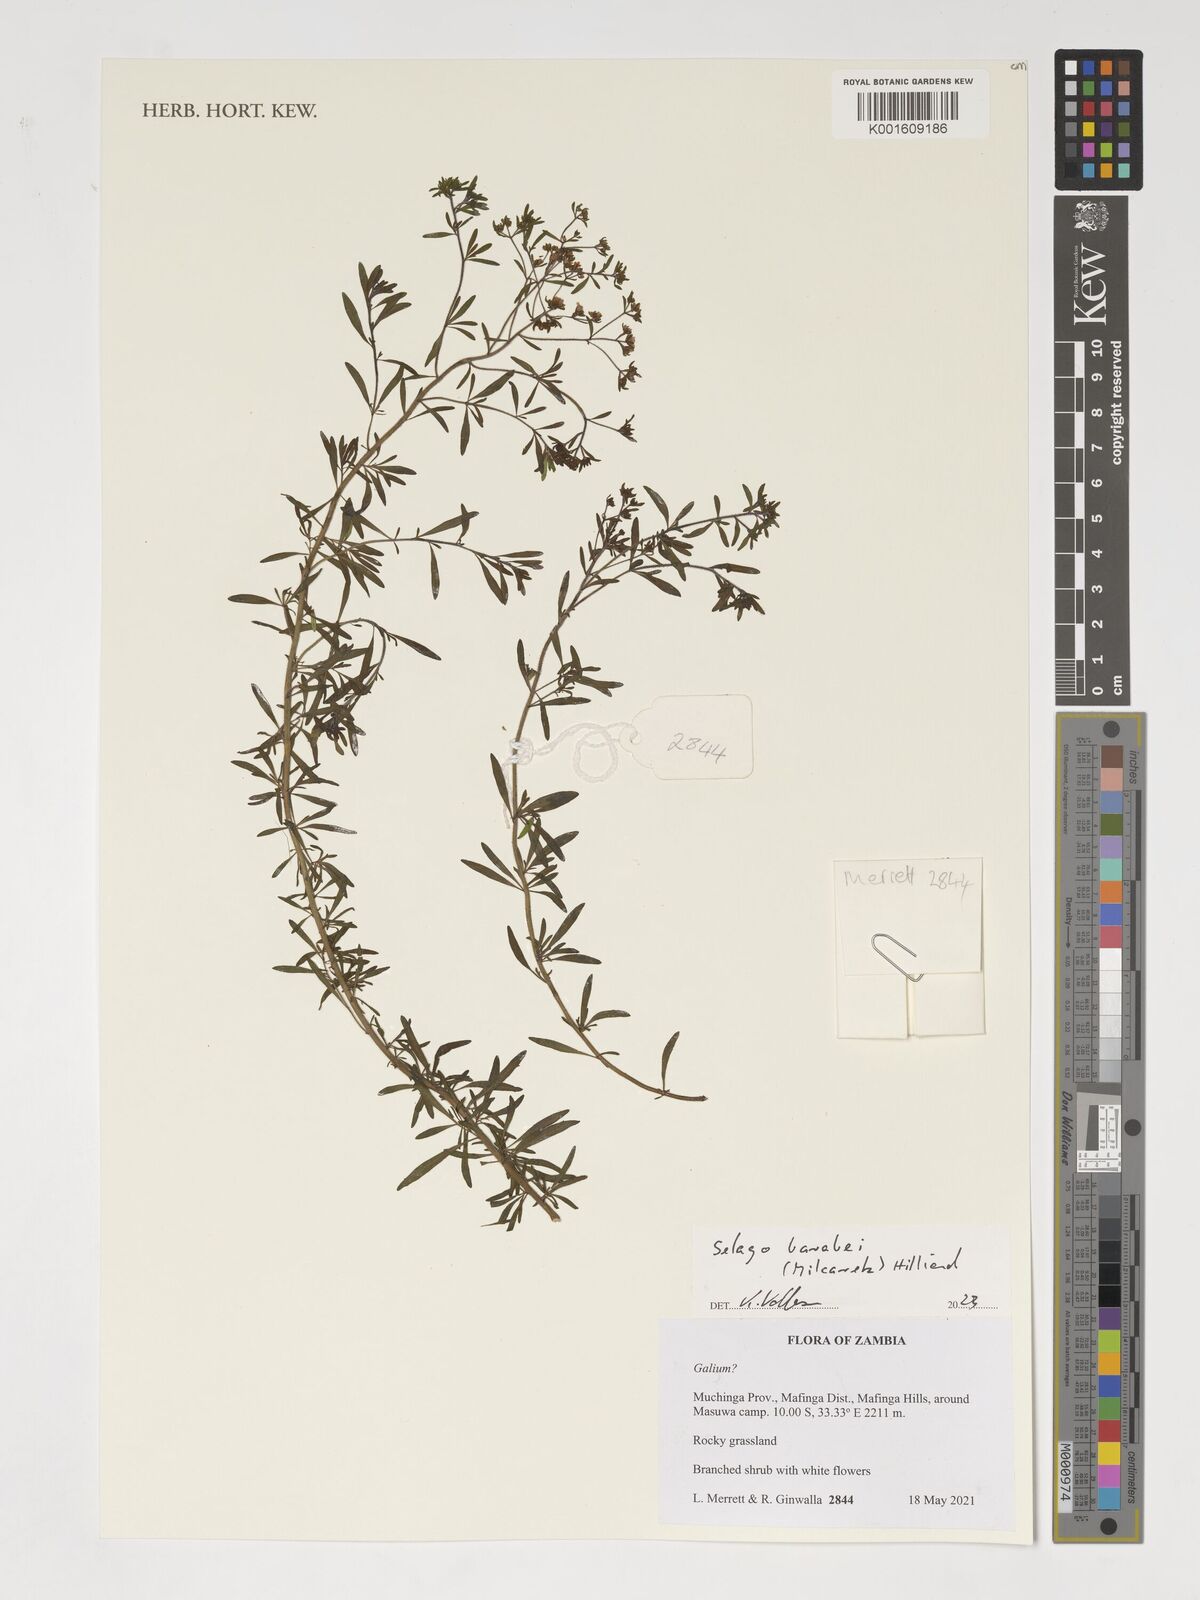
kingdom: Plantae
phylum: Tracheophyta
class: Magnoliopsida
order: Lamiales
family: Scrophulariaceae
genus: Selago
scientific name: Selago barabei
